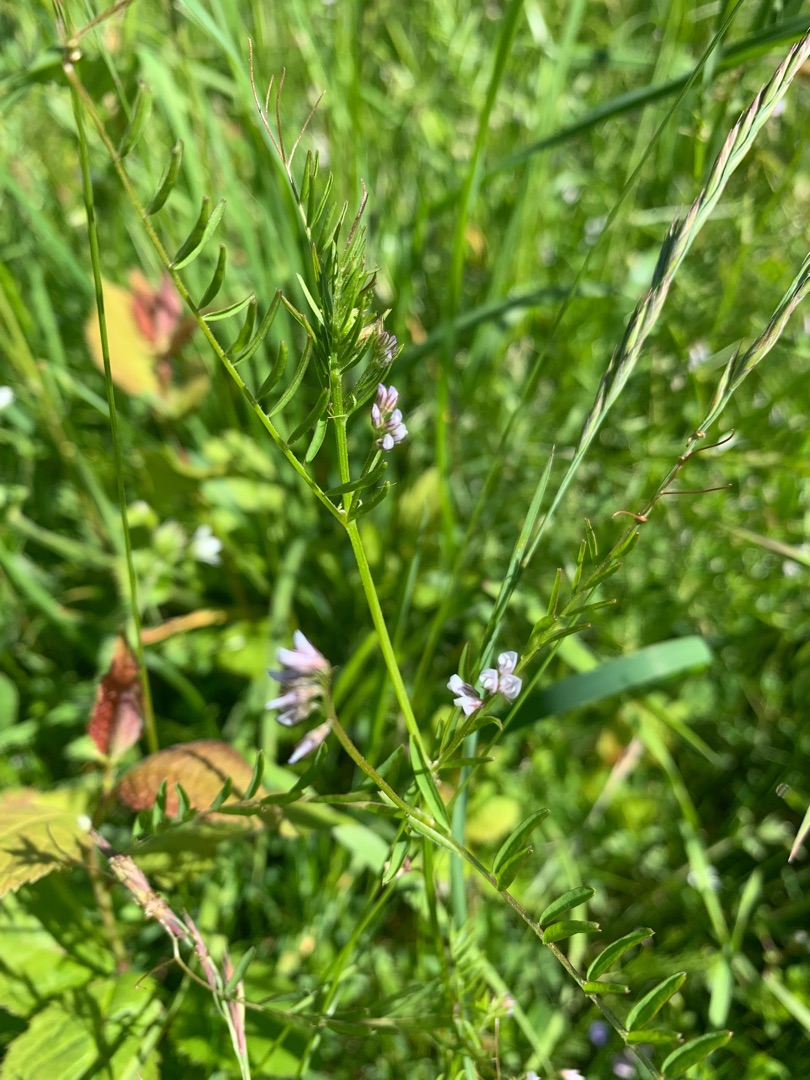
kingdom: Plantae
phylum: Tracheophyta
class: Magnoliopsida
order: Fabales
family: Fabaceae
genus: Vicia
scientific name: Vicia hirsuta
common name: Tofrøet vikke
